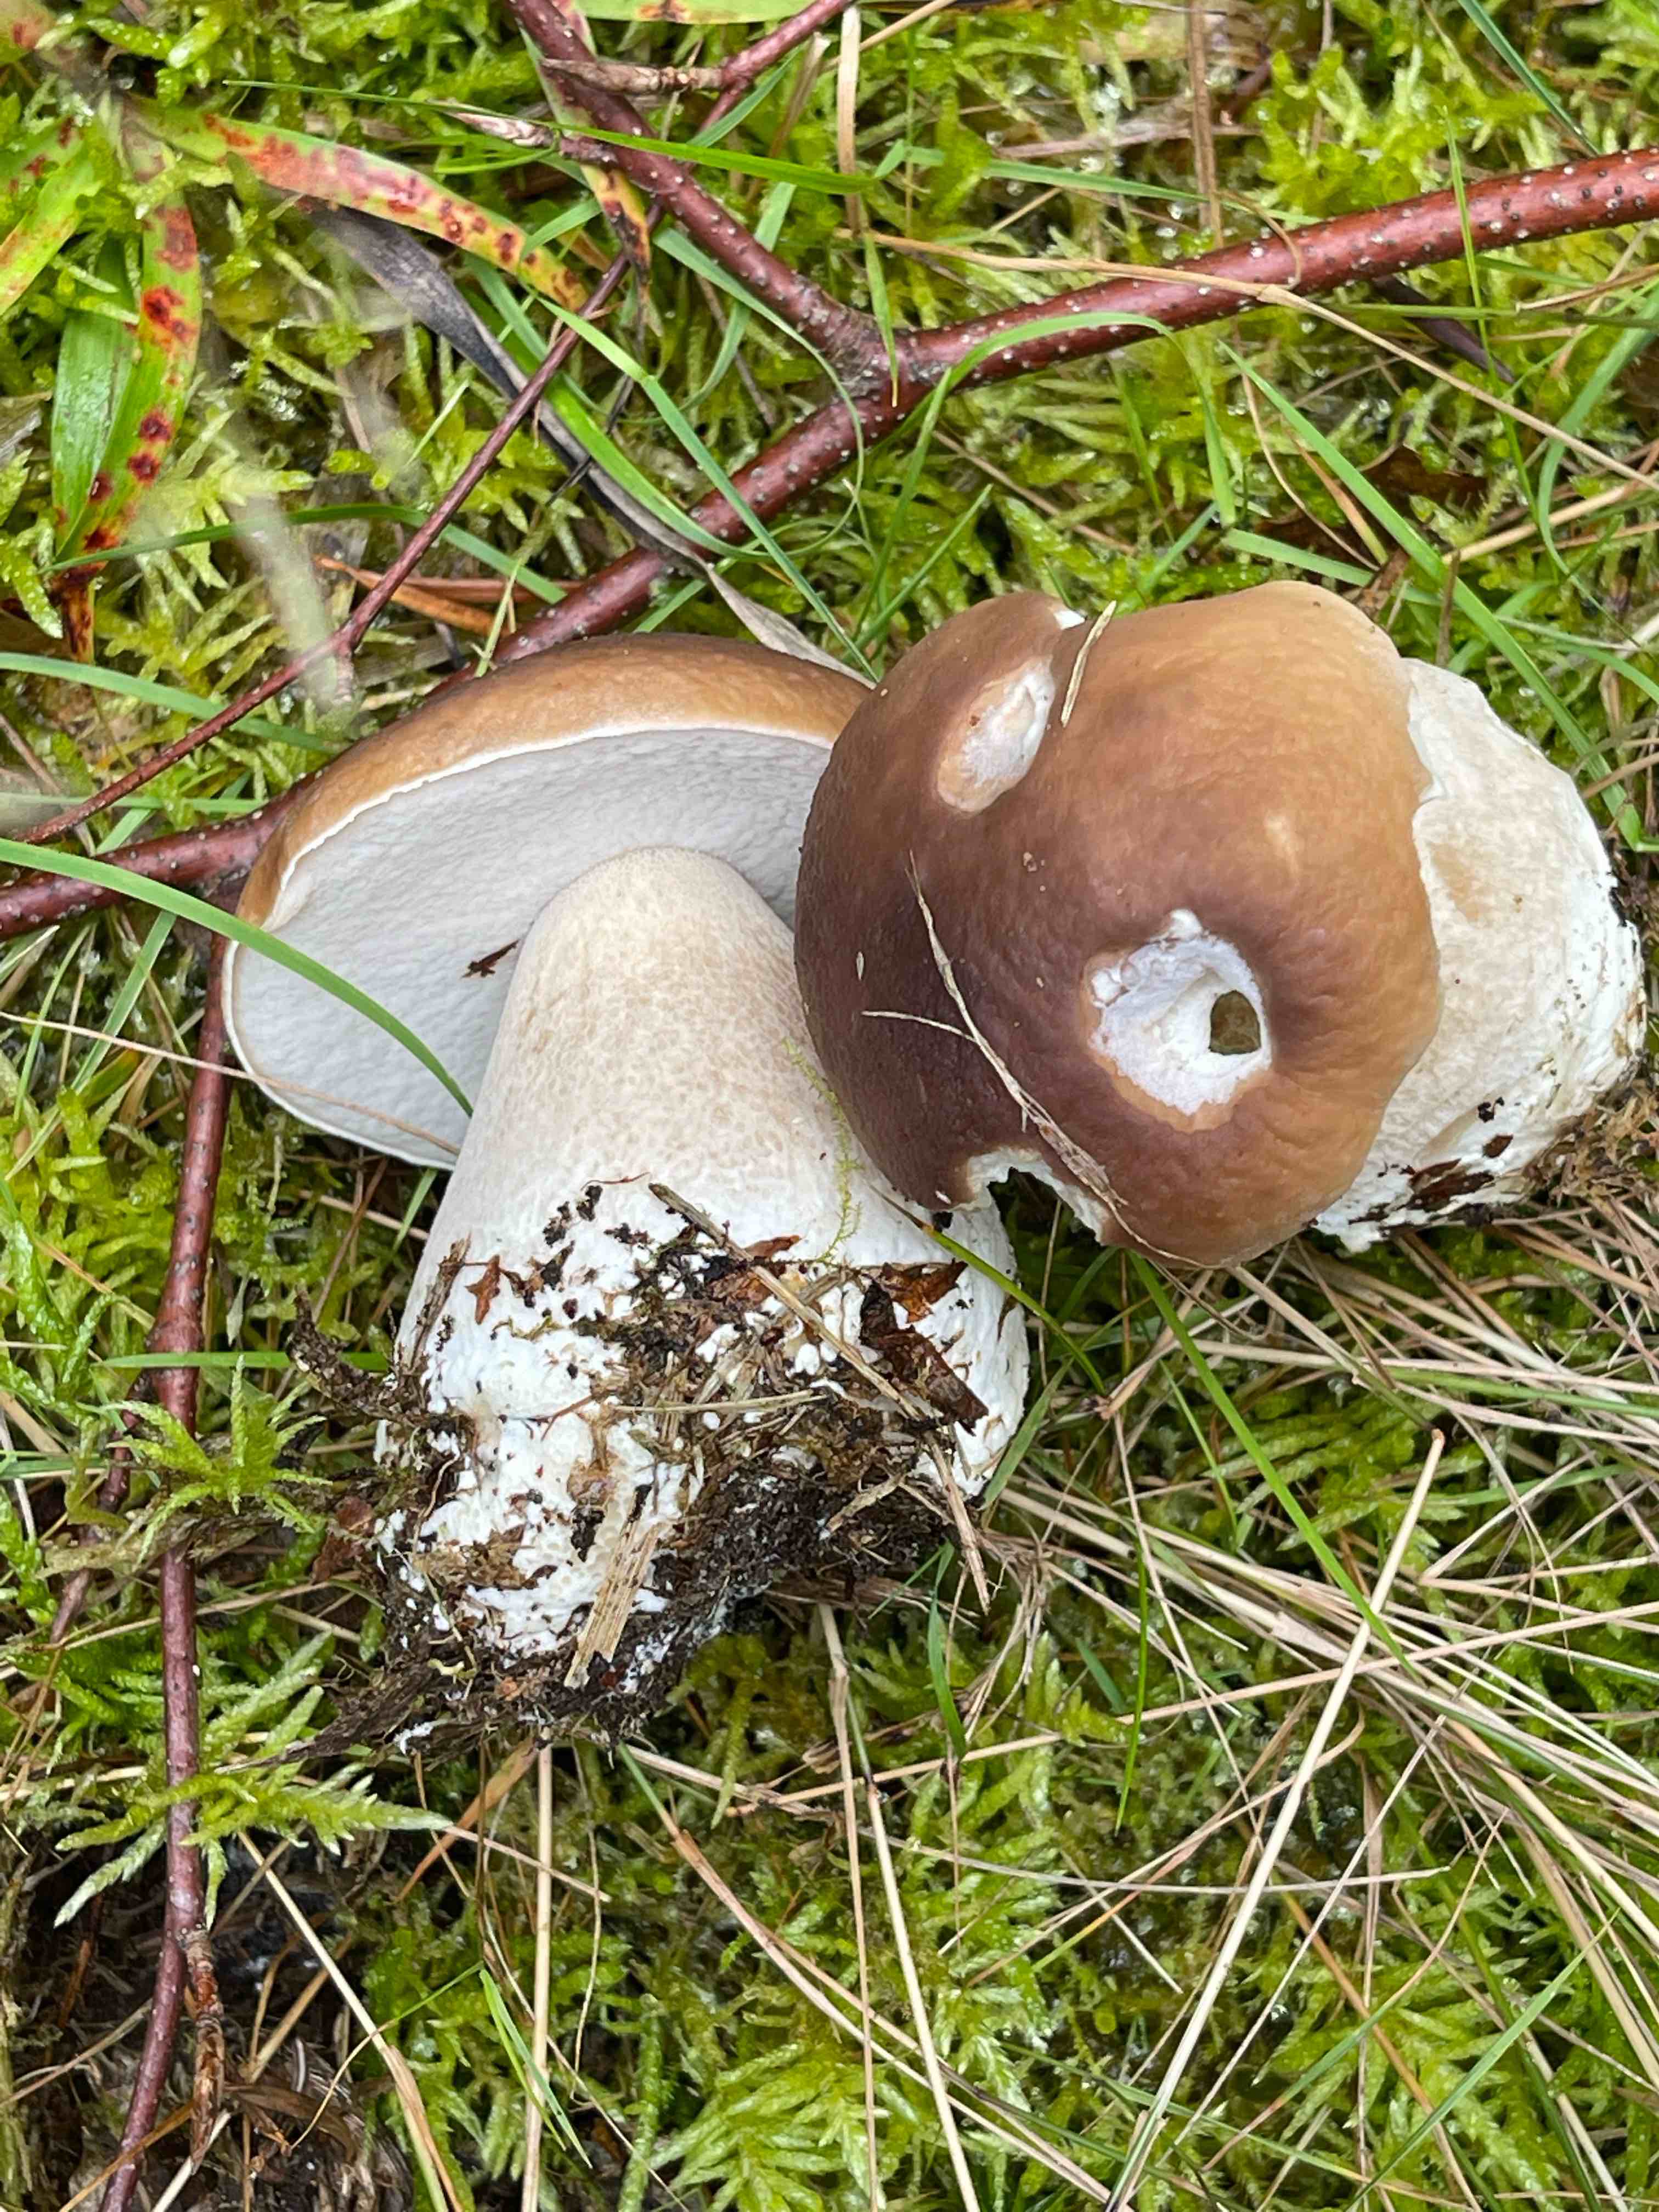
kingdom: Fungi
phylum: Basidiomycota
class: Agaricomycetes
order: Boletales
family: Boletaceae
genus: Boletus
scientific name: Boletus edulis
